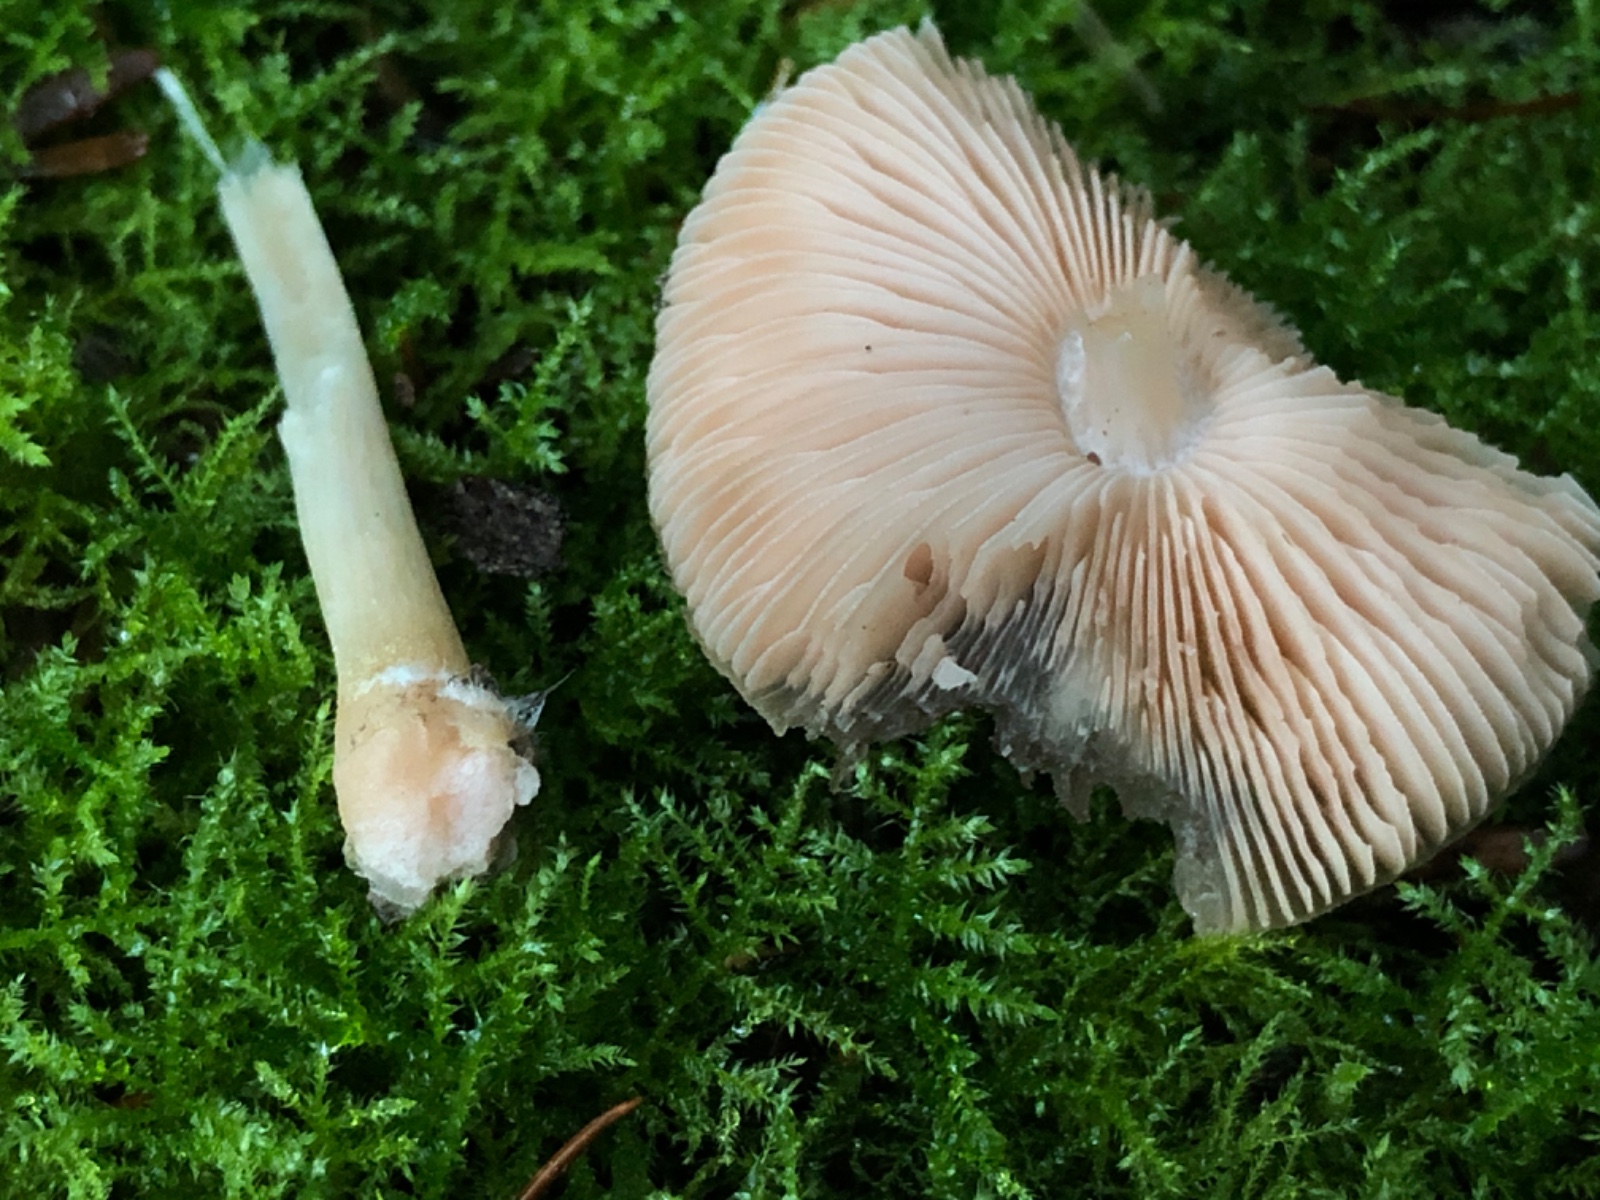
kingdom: Fungi
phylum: Basidiomycota
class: Agaricomycetes
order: Agaricales
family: Pluteaceae
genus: Pluteus
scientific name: Pluteus roseipes
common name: rosafodet skærmhat
